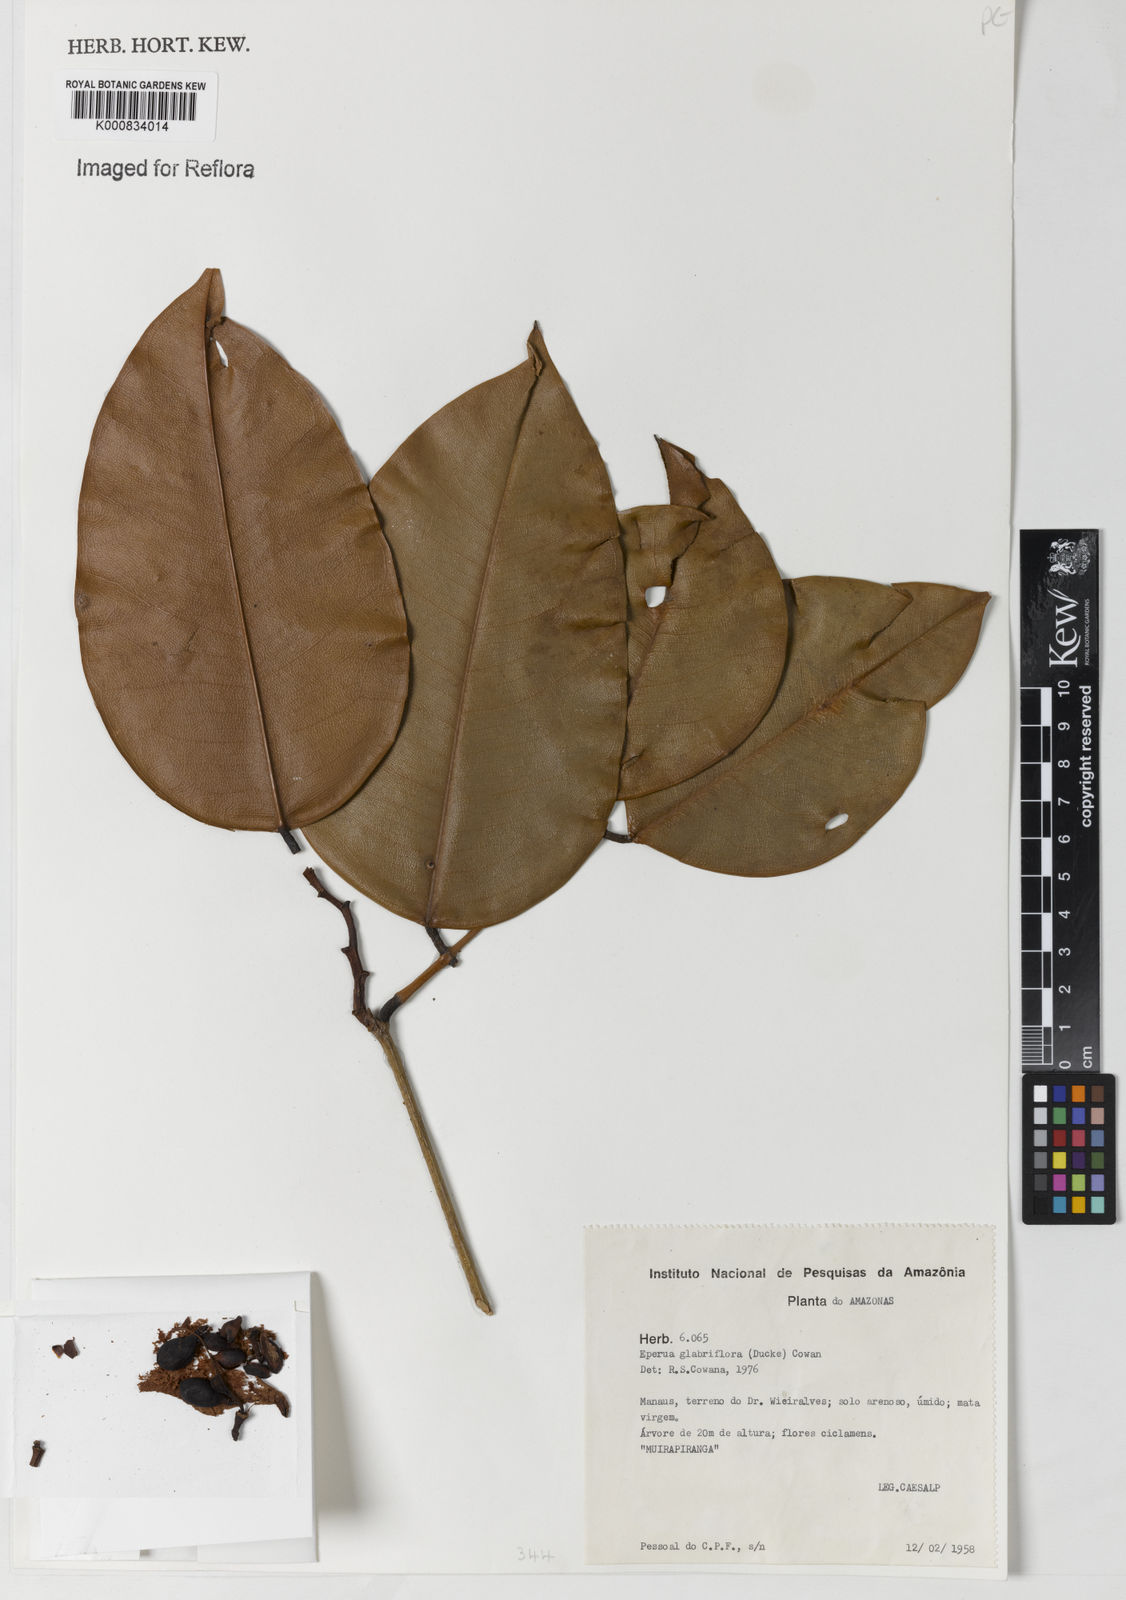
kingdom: Plantae
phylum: Tracheophyta
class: Magnoliopsida
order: Fabales
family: Fabaceae
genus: Eperua
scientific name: Eperua glabriflora
